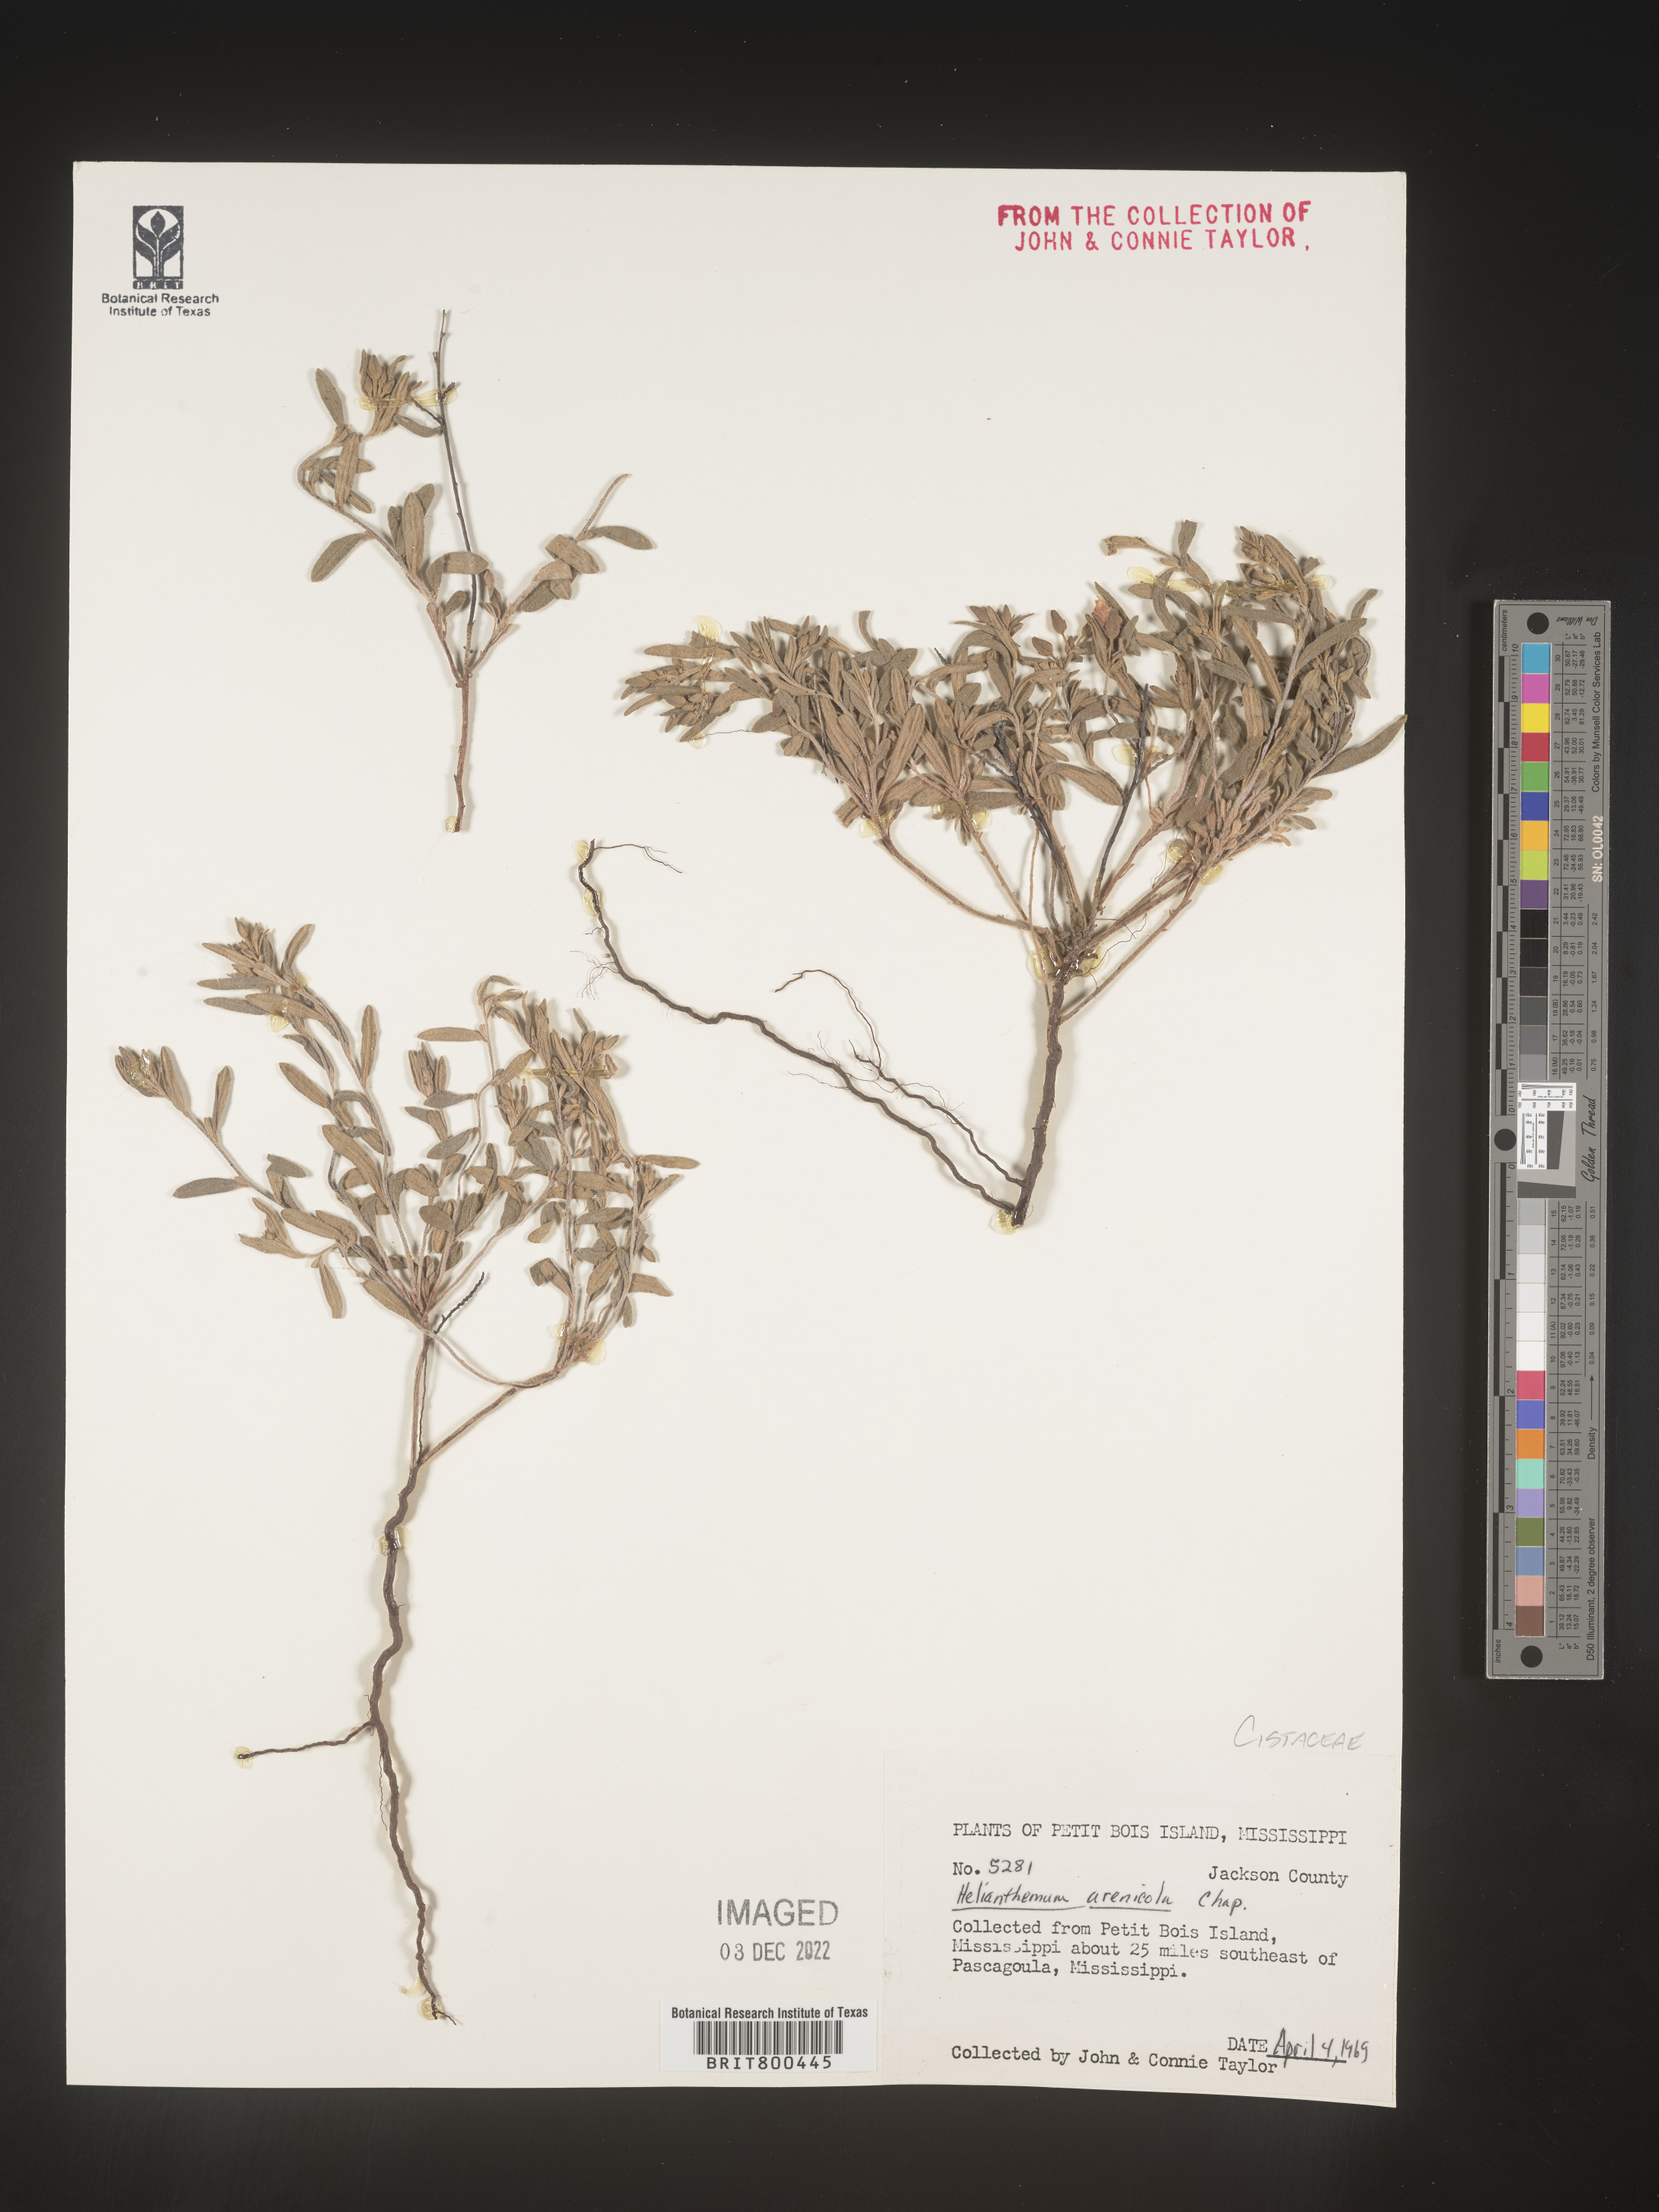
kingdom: Plantae
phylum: Tracheophyta
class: Magnoliopsida
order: Malvales
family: Cistaceae
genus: Helianthemum
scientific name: Helianthemum
